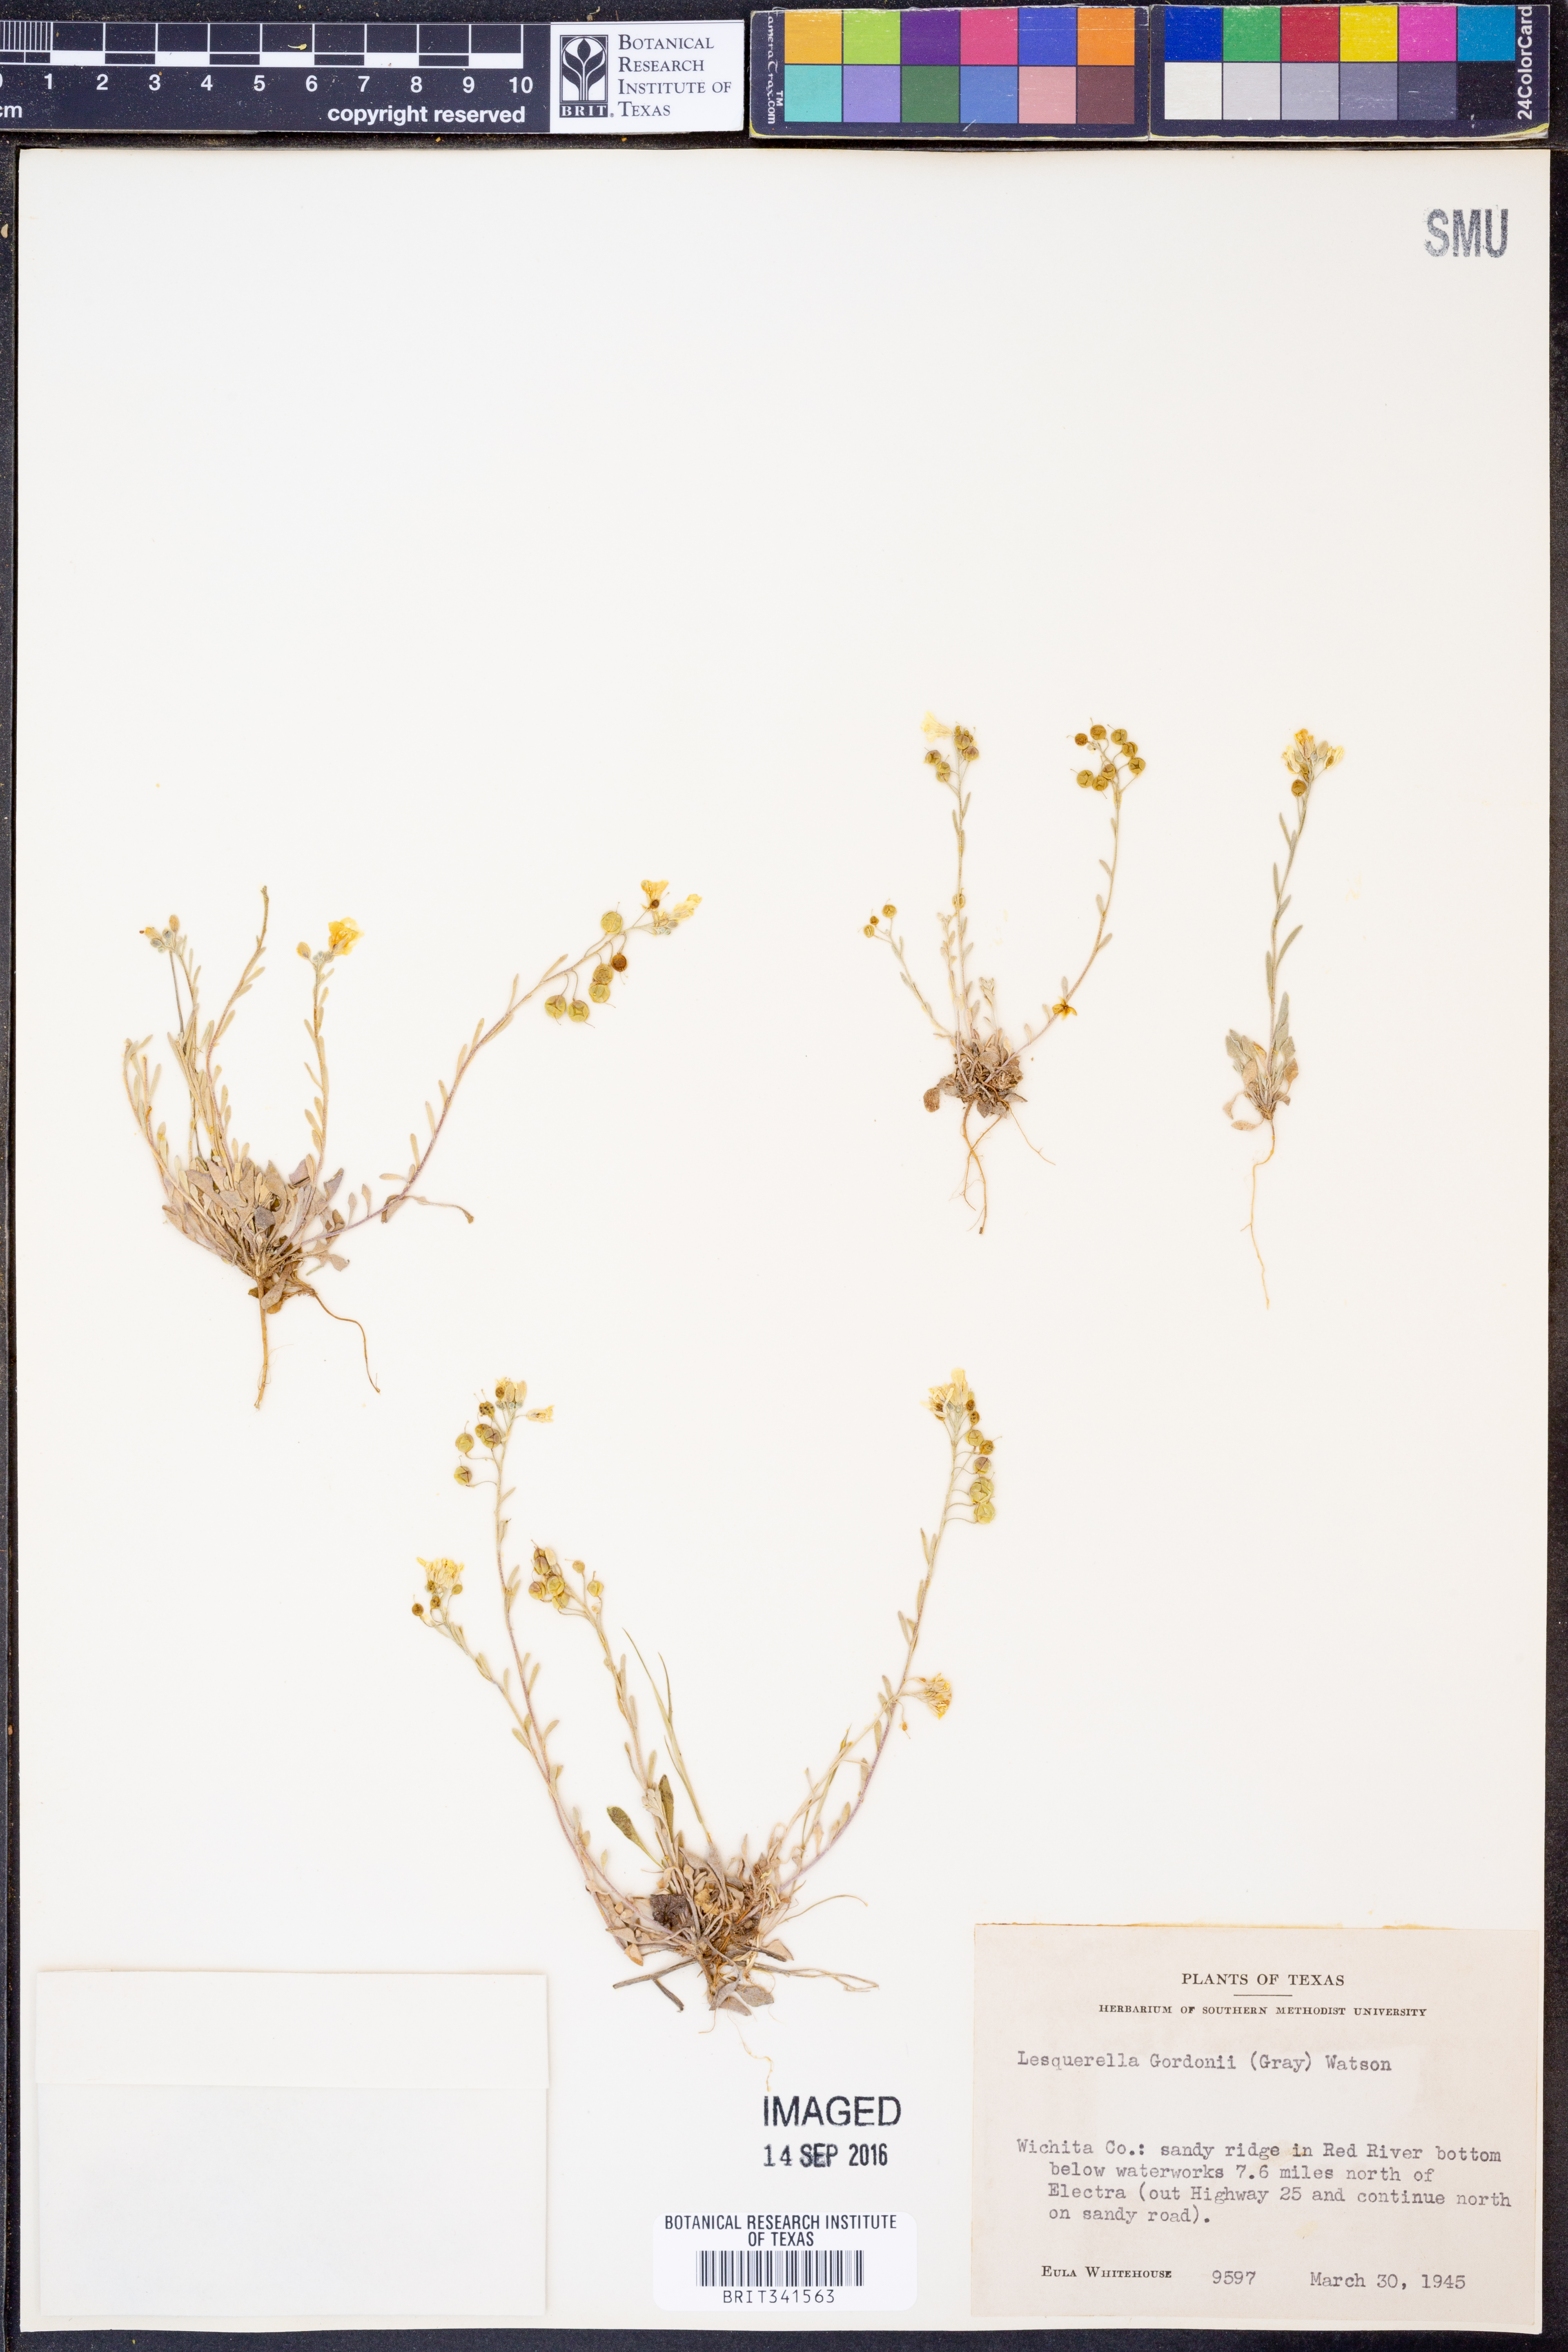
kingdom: Plantae
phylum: Tracheophyta
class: Magnoliopsida
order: Brassicales
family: Brassicaceae
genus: Physaria
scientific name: Physaria gordonii
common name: Gordon's bladderpod
